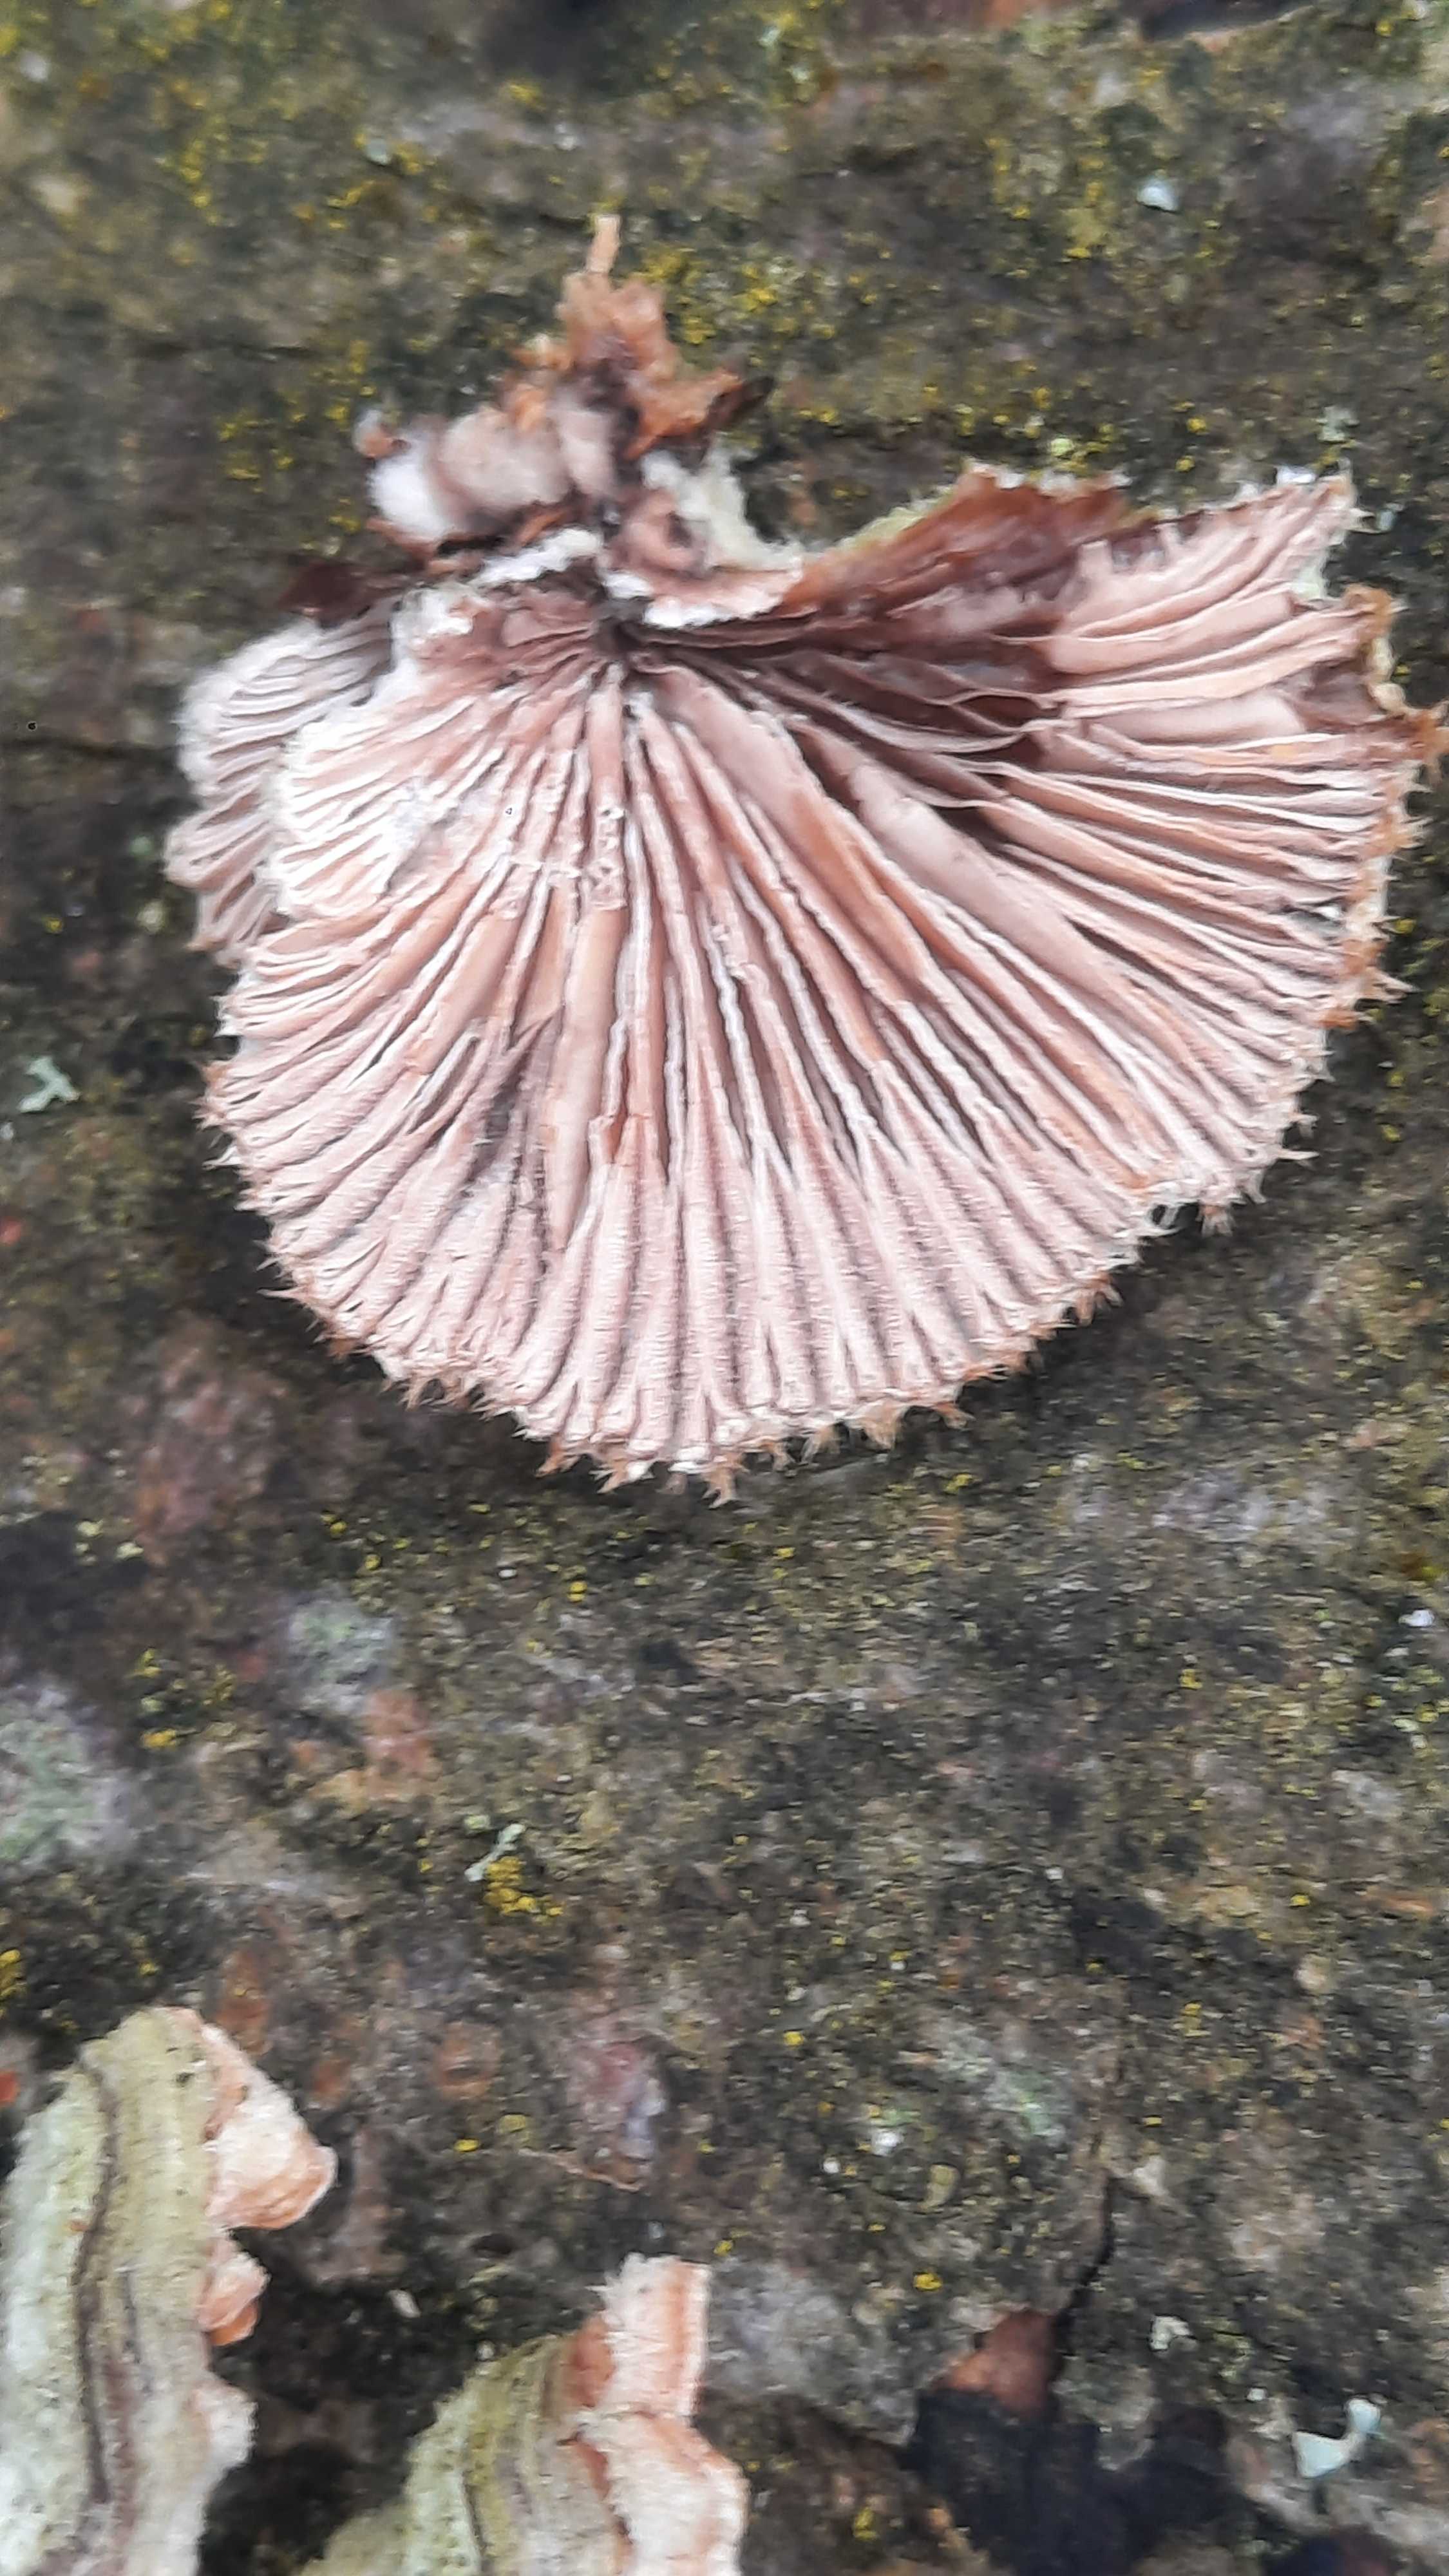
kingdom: Fungi
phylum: Basidiomycota
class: Agaricomycetes
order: Agaricales
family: Schizophyllaceae
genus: Schizophyllum
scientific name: Schizophyllum commune
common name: kløvblad
